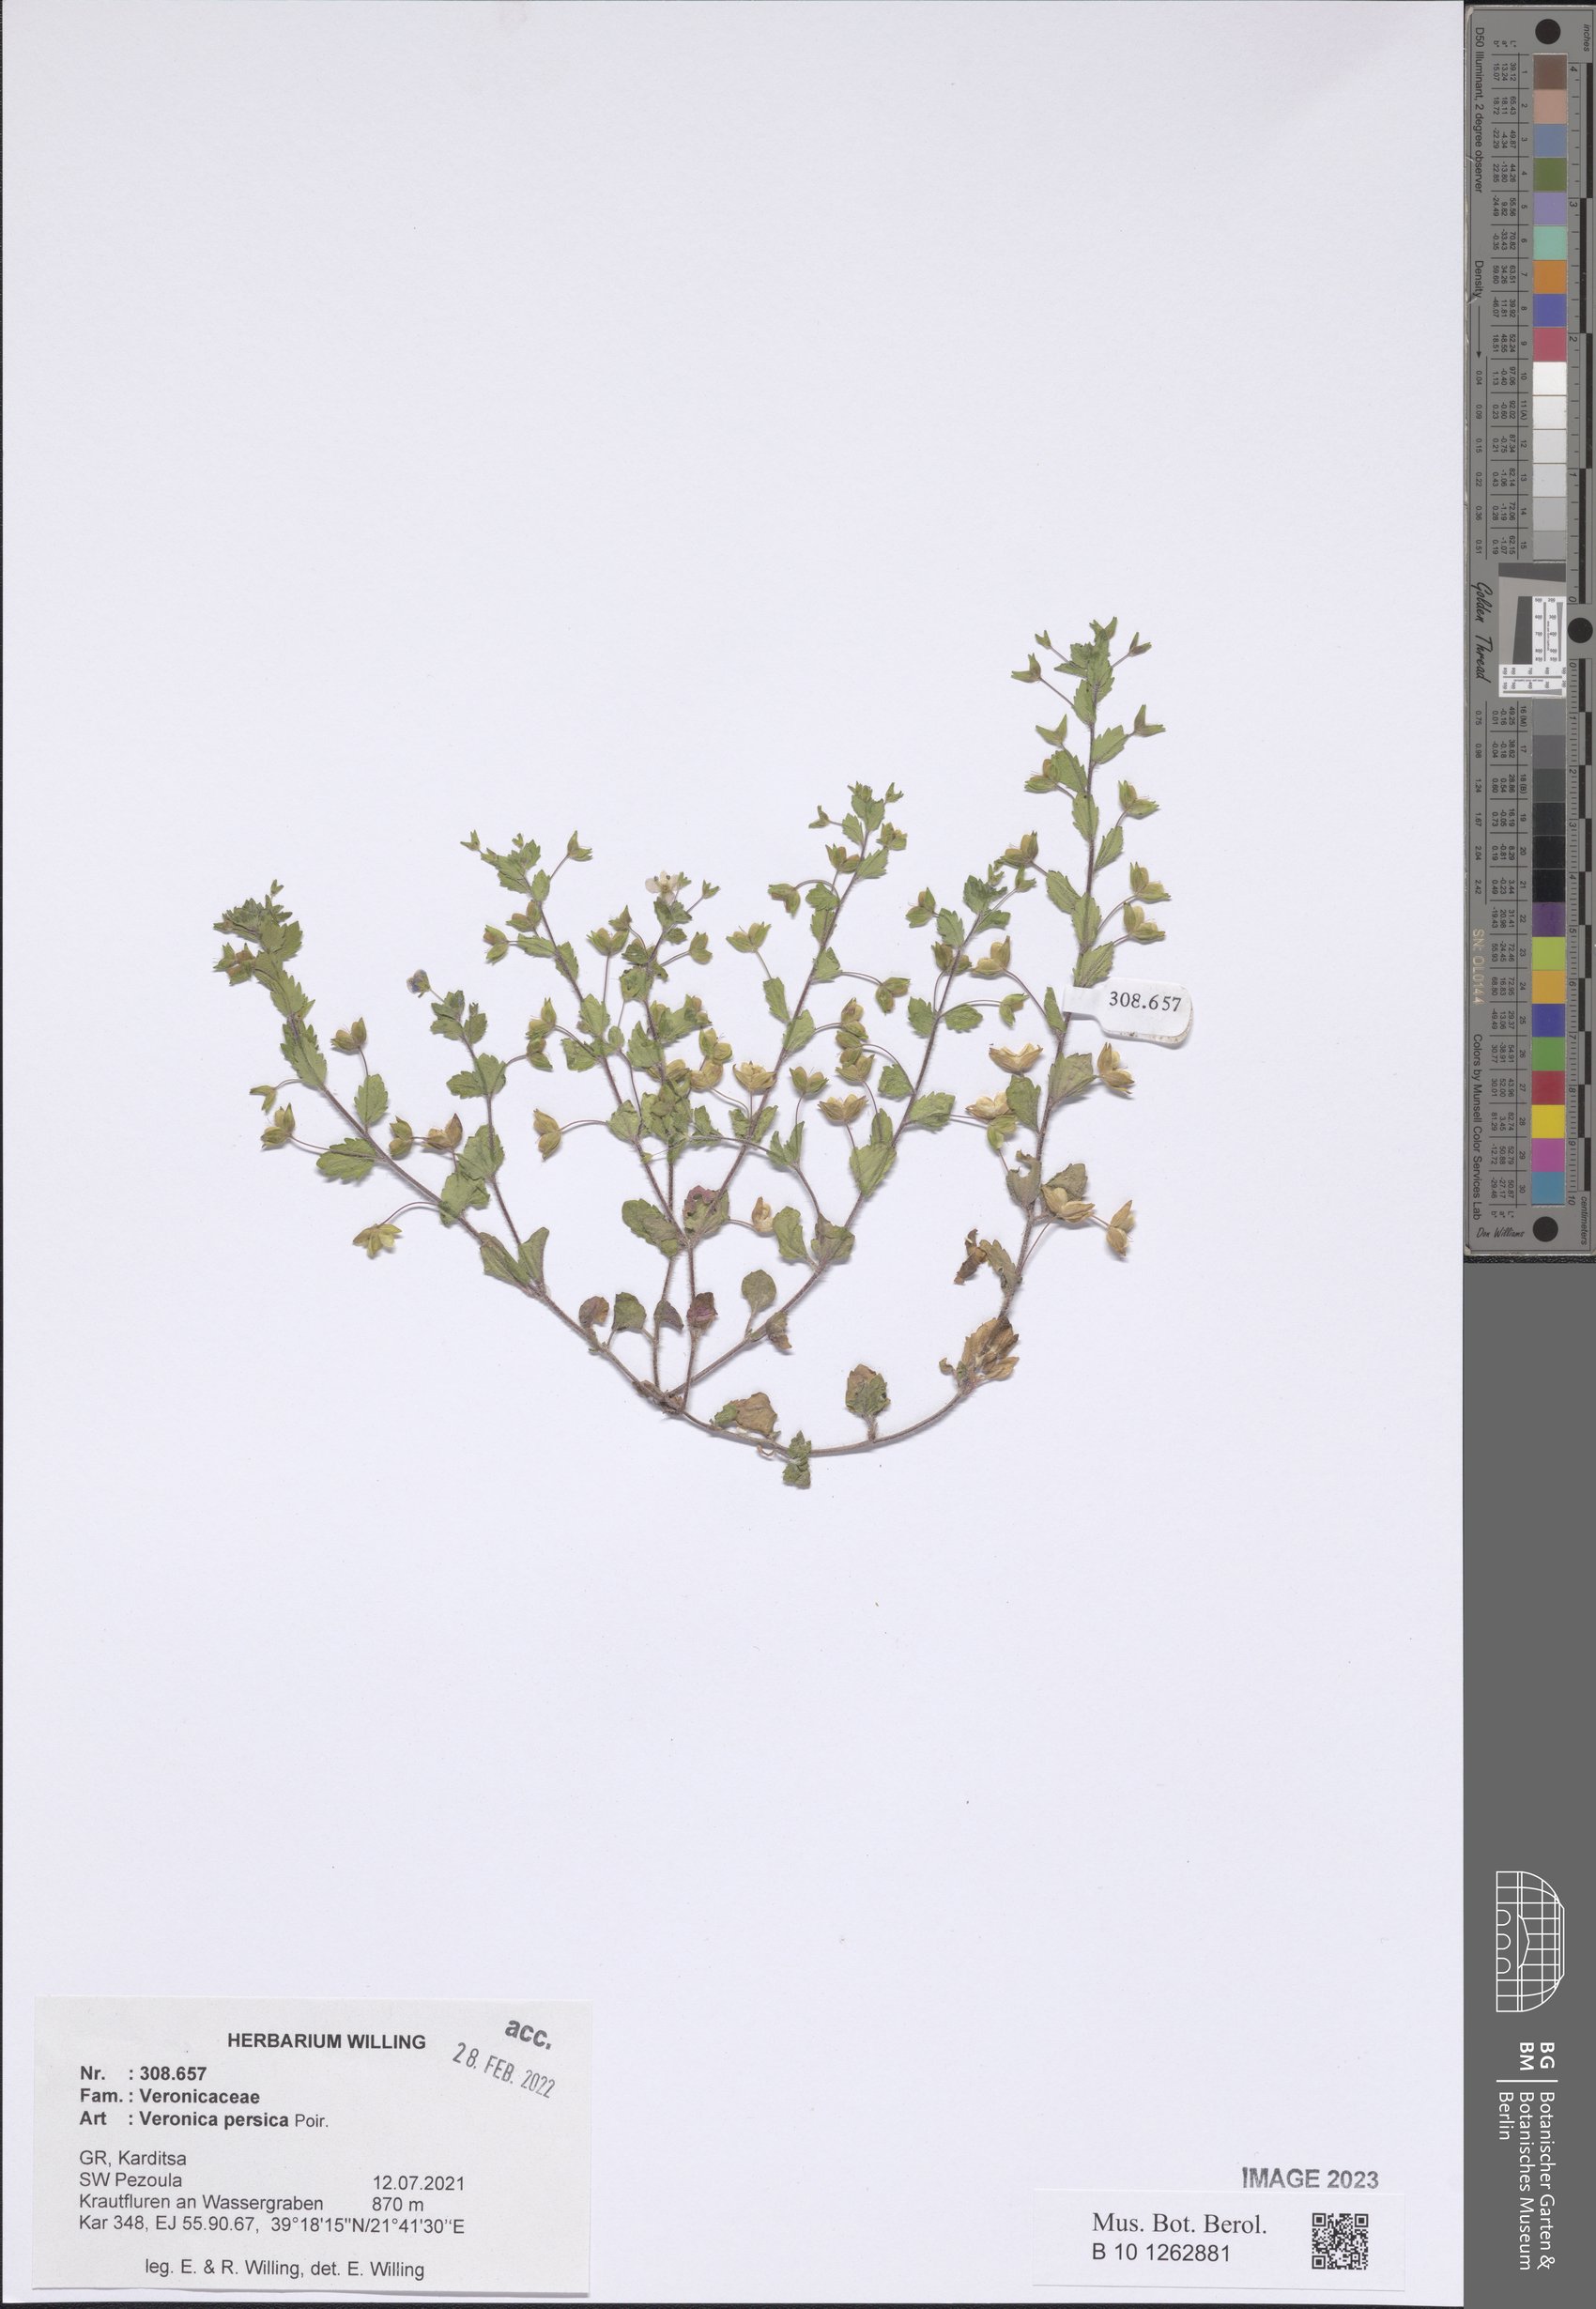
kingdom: Plantae
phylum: Tracheophyta
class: Magnoliopsida
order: Lamiales
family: Plantaginaceae
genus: Veronica
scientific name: Veronica persica
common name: Common field-speedwell
